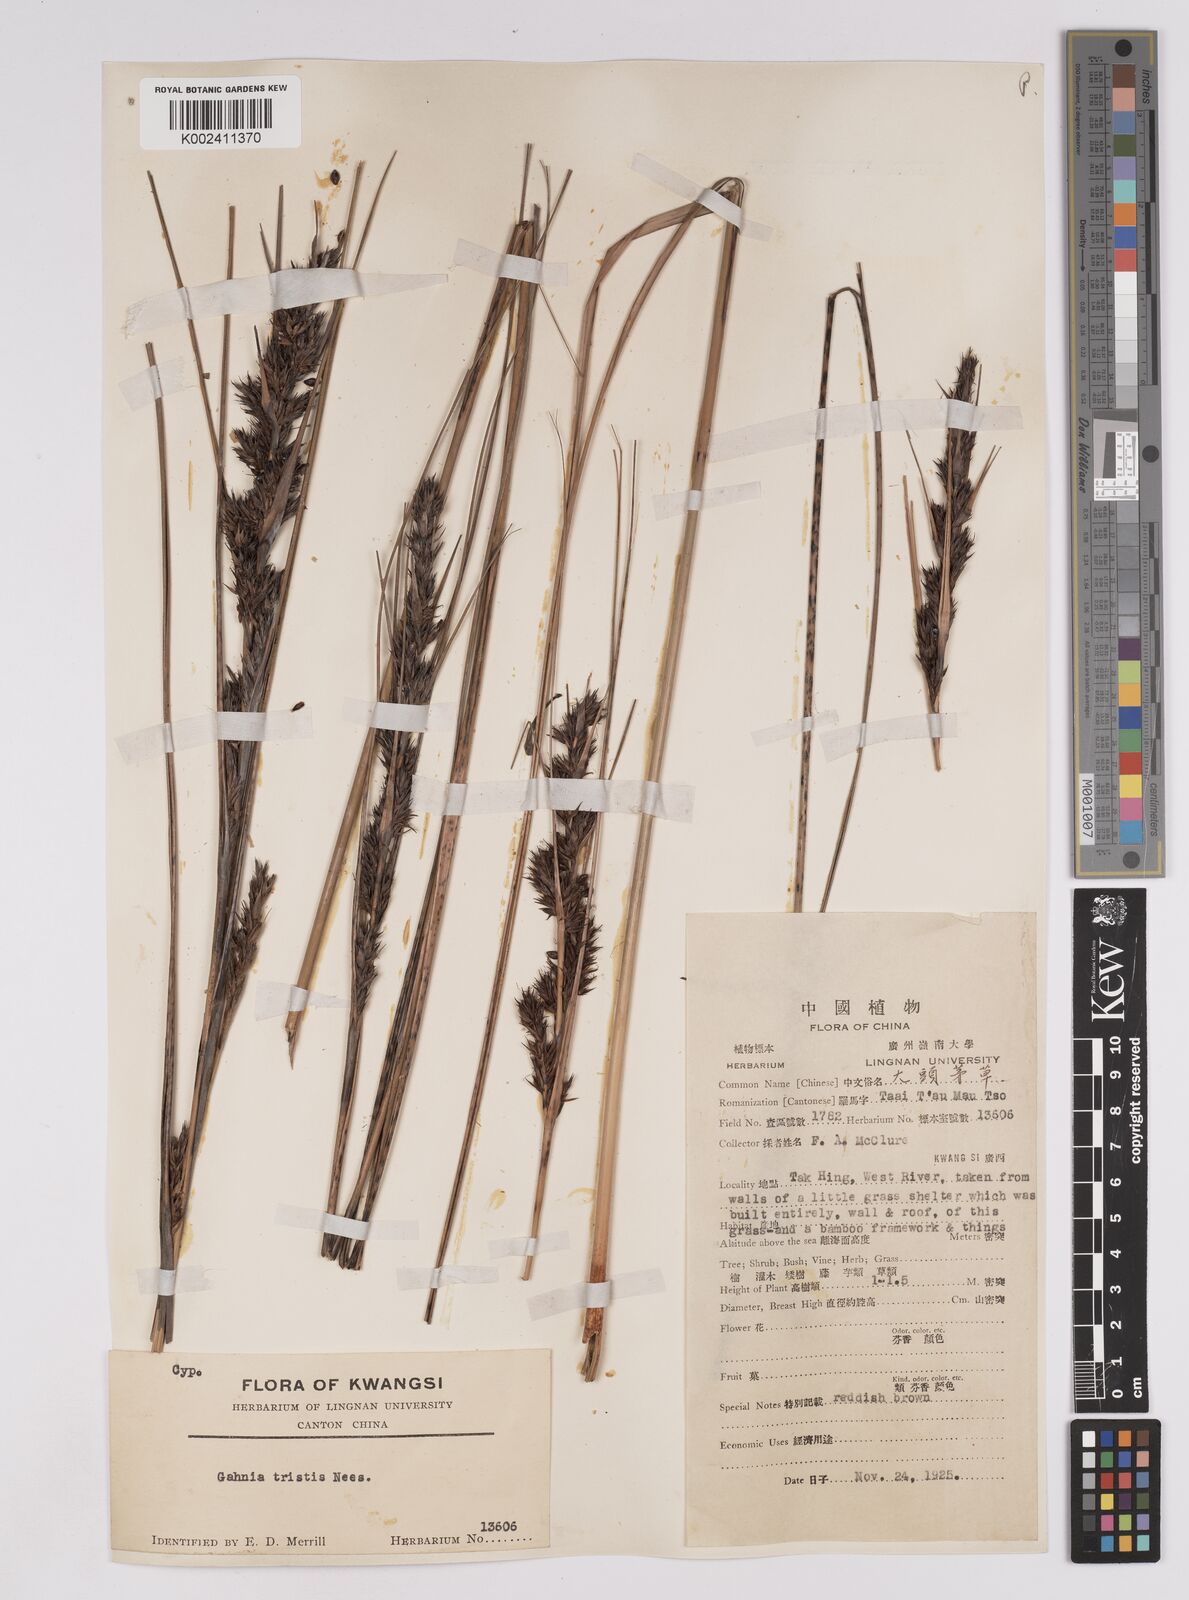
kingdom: Plantae
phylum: Tracheophyta
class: Liliopsida
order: Poales
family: Cyperaceae
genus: Gahnia
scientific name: Gahnia tristis
